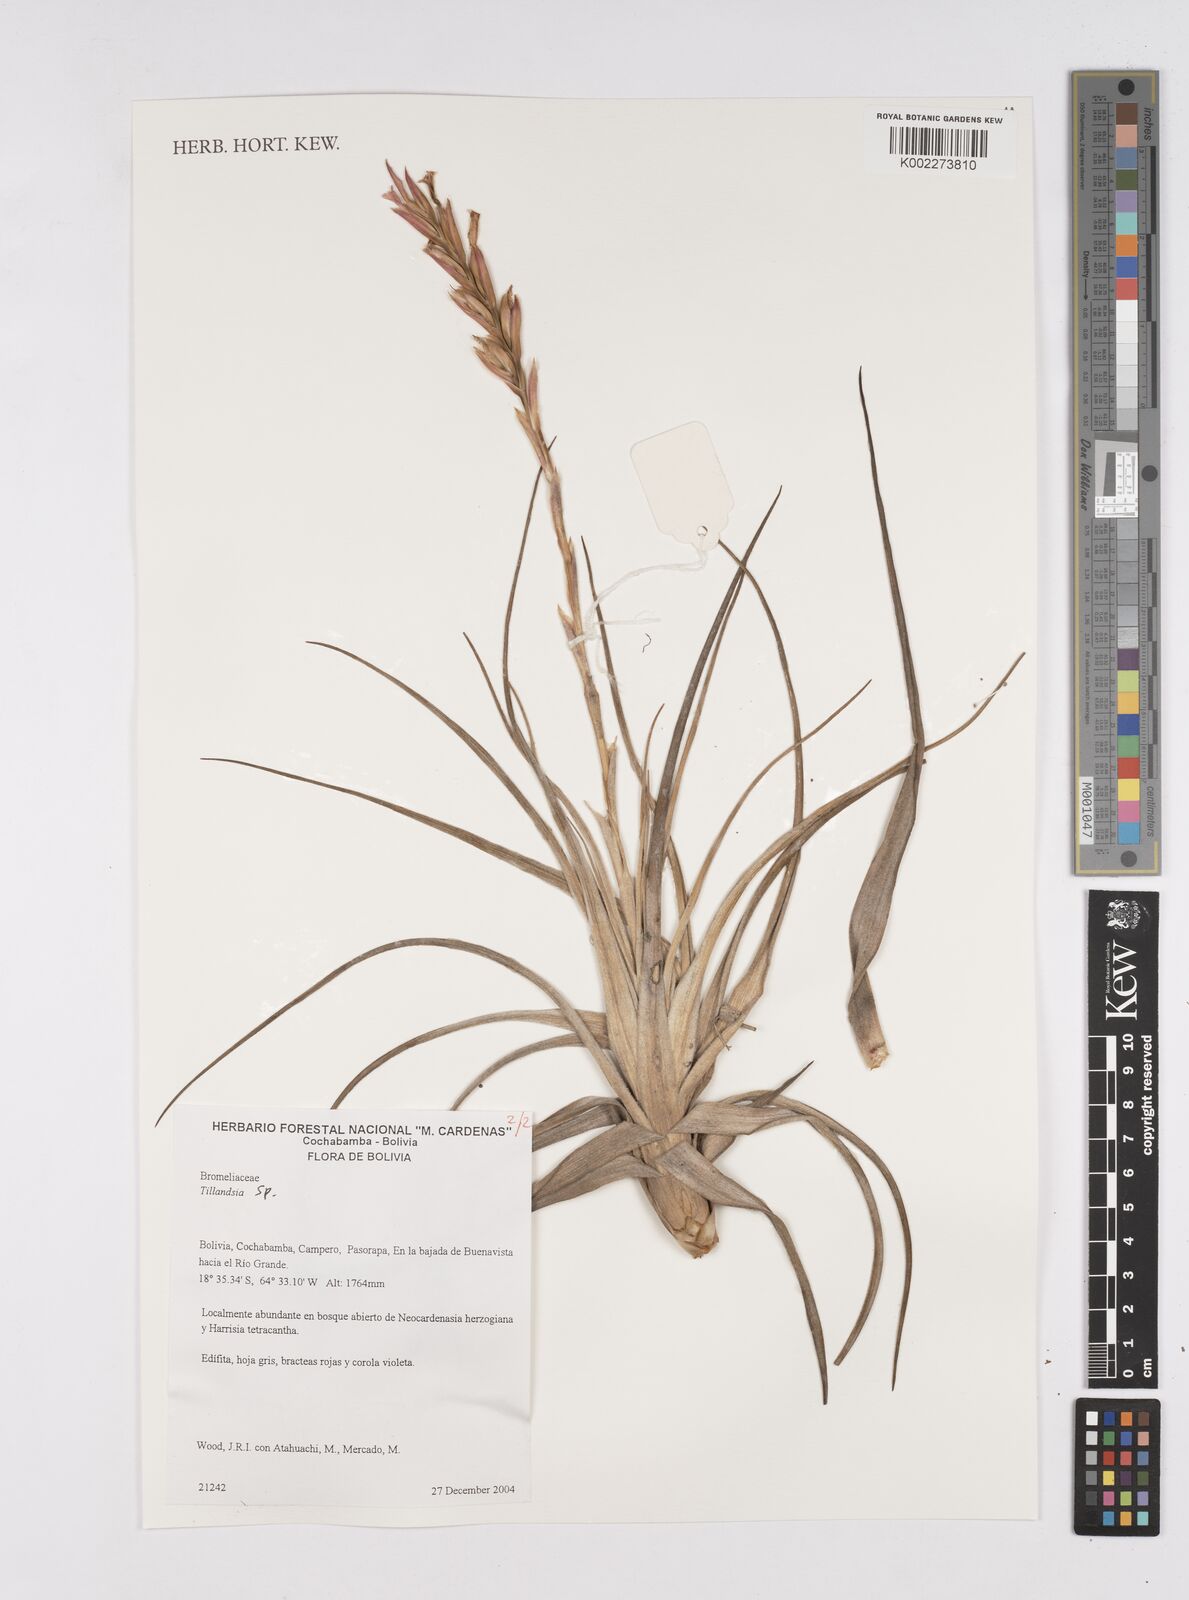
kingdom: Plantae
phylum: Tracheophyta
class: Liliopsida
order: Poales
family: Bromeliaceae
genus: Tillandsia
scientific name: Tillandsia
